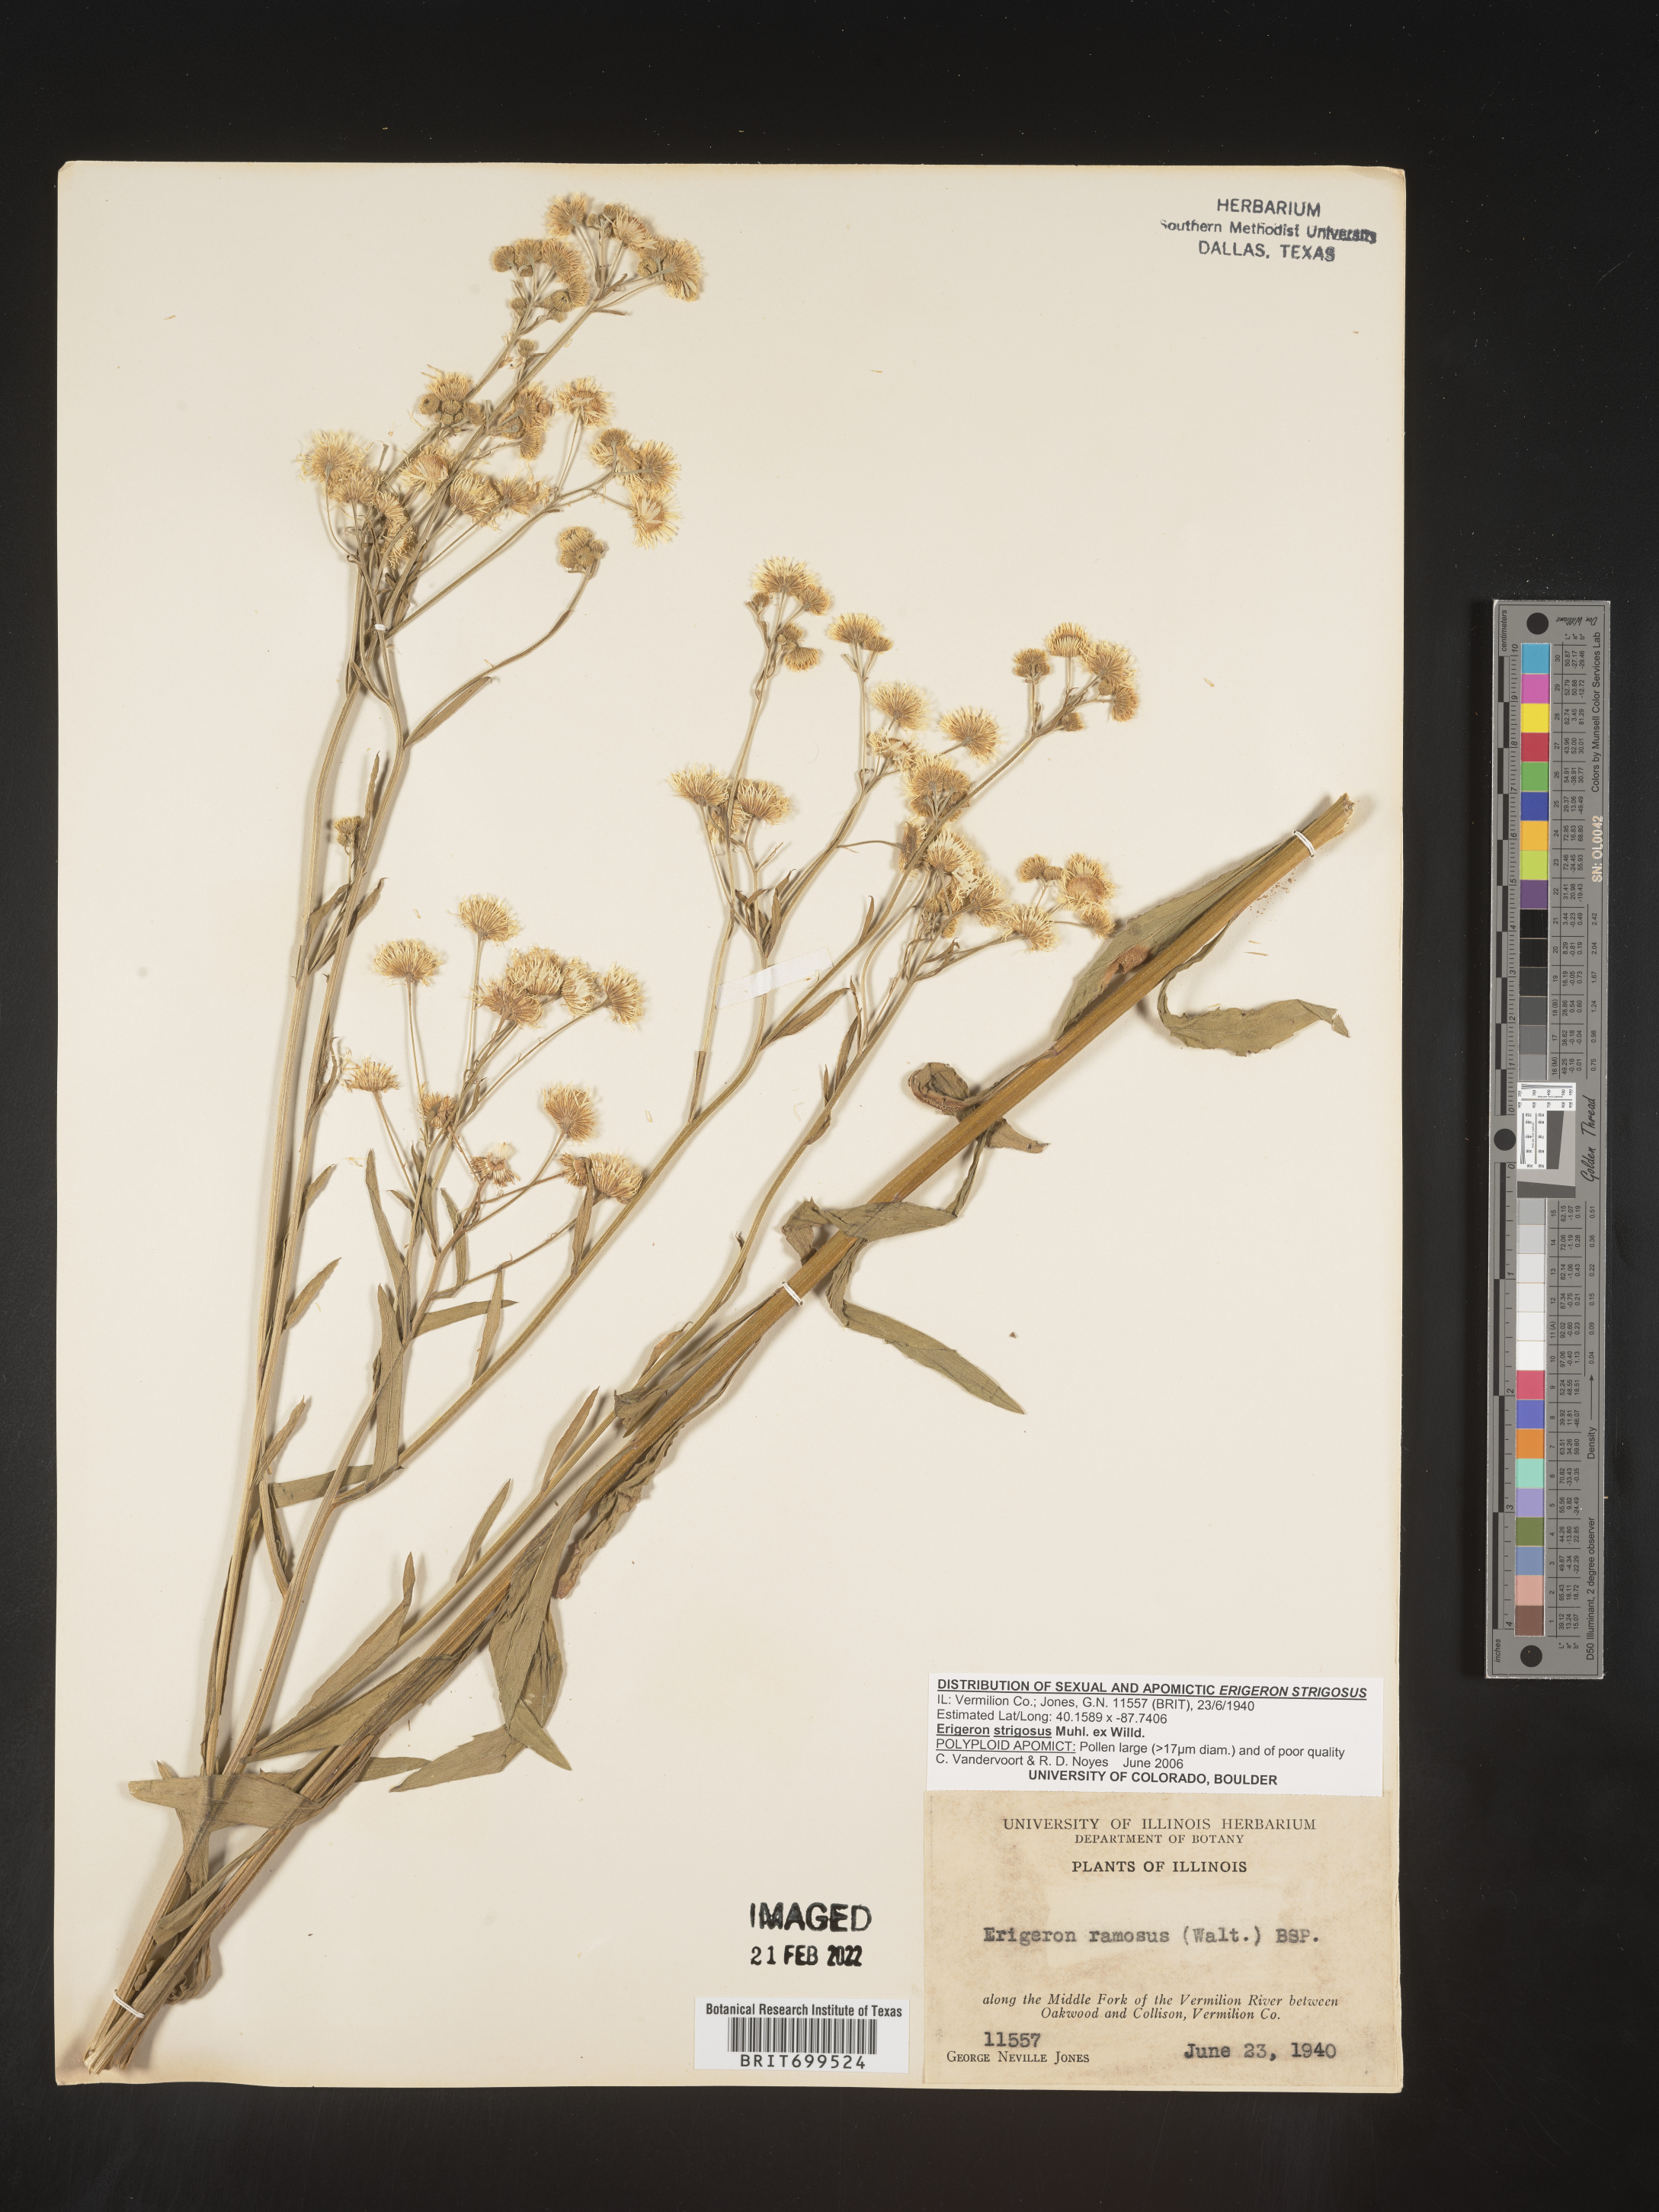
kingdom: Plantae
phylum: Tracheophyta
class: Magnoliopsida
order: Asterales
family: Asteraceae
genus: Erigeron
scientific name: Erigeron strigosus
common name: Common eastern fleabane
